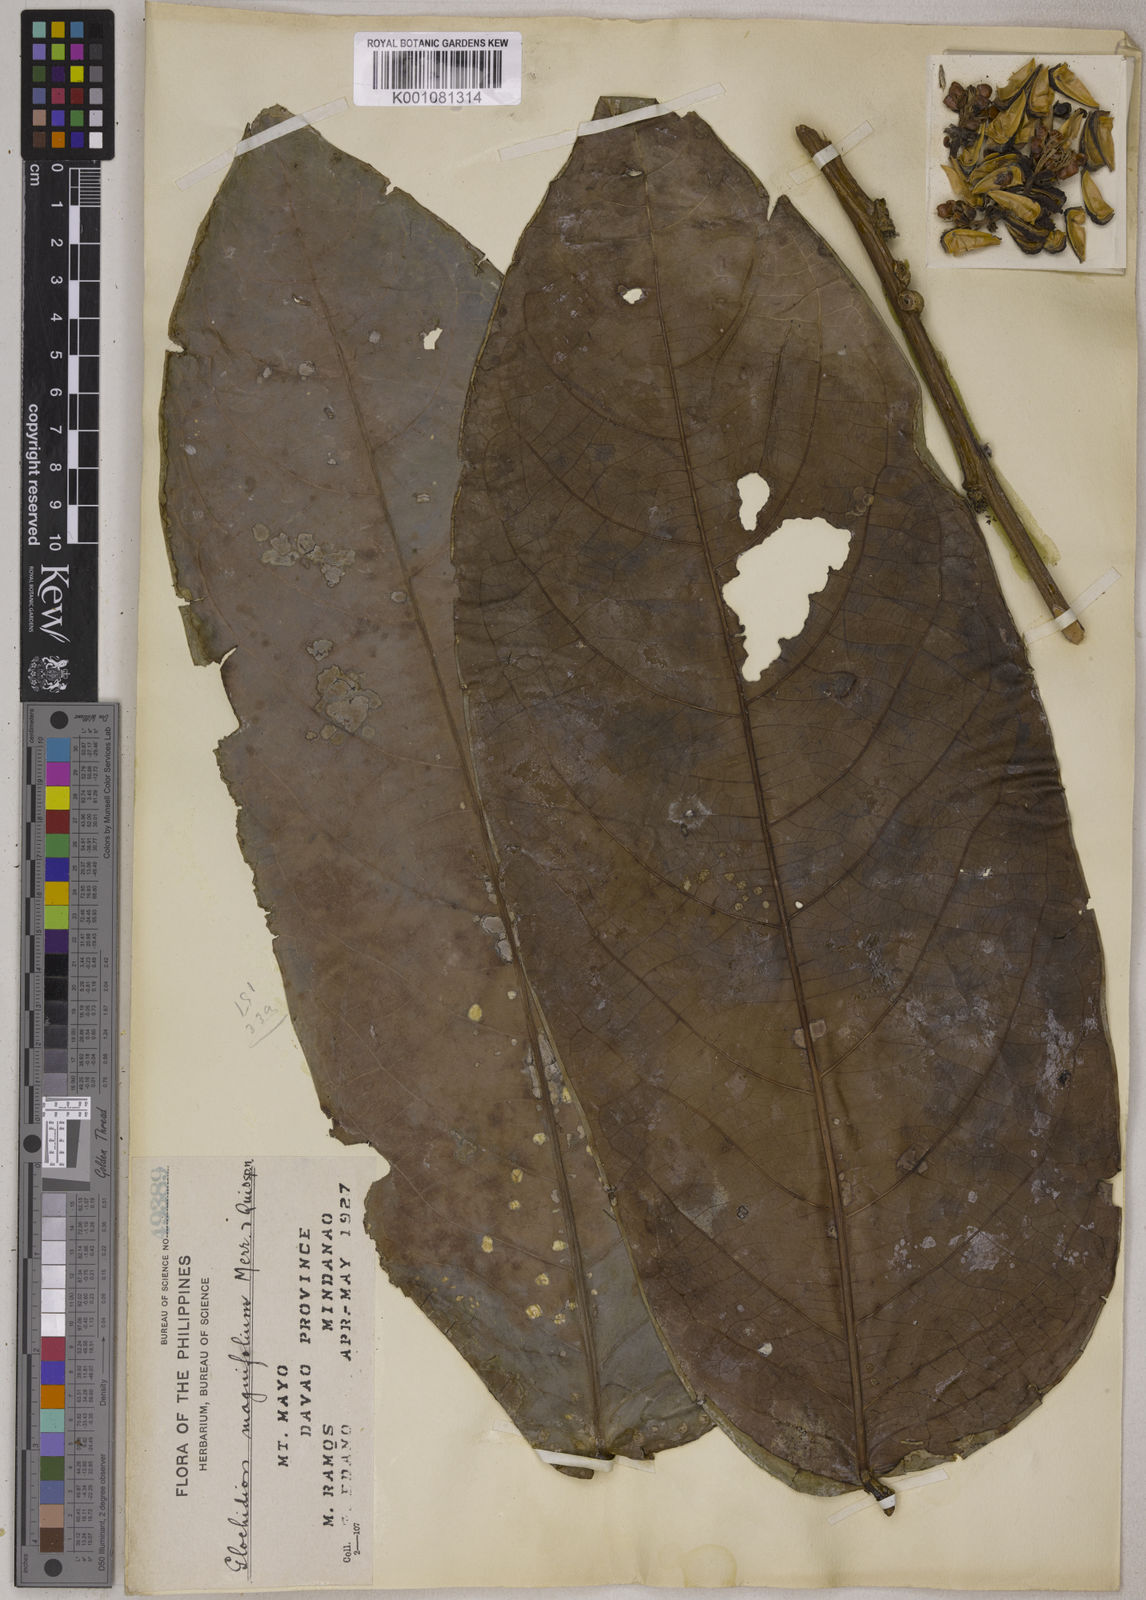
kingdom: Plantae
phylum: Tracheophyta
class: Magnoliopsida
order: Malpighiales
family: Phyllanthaceae
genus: Glochidion
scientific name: Glochidion
